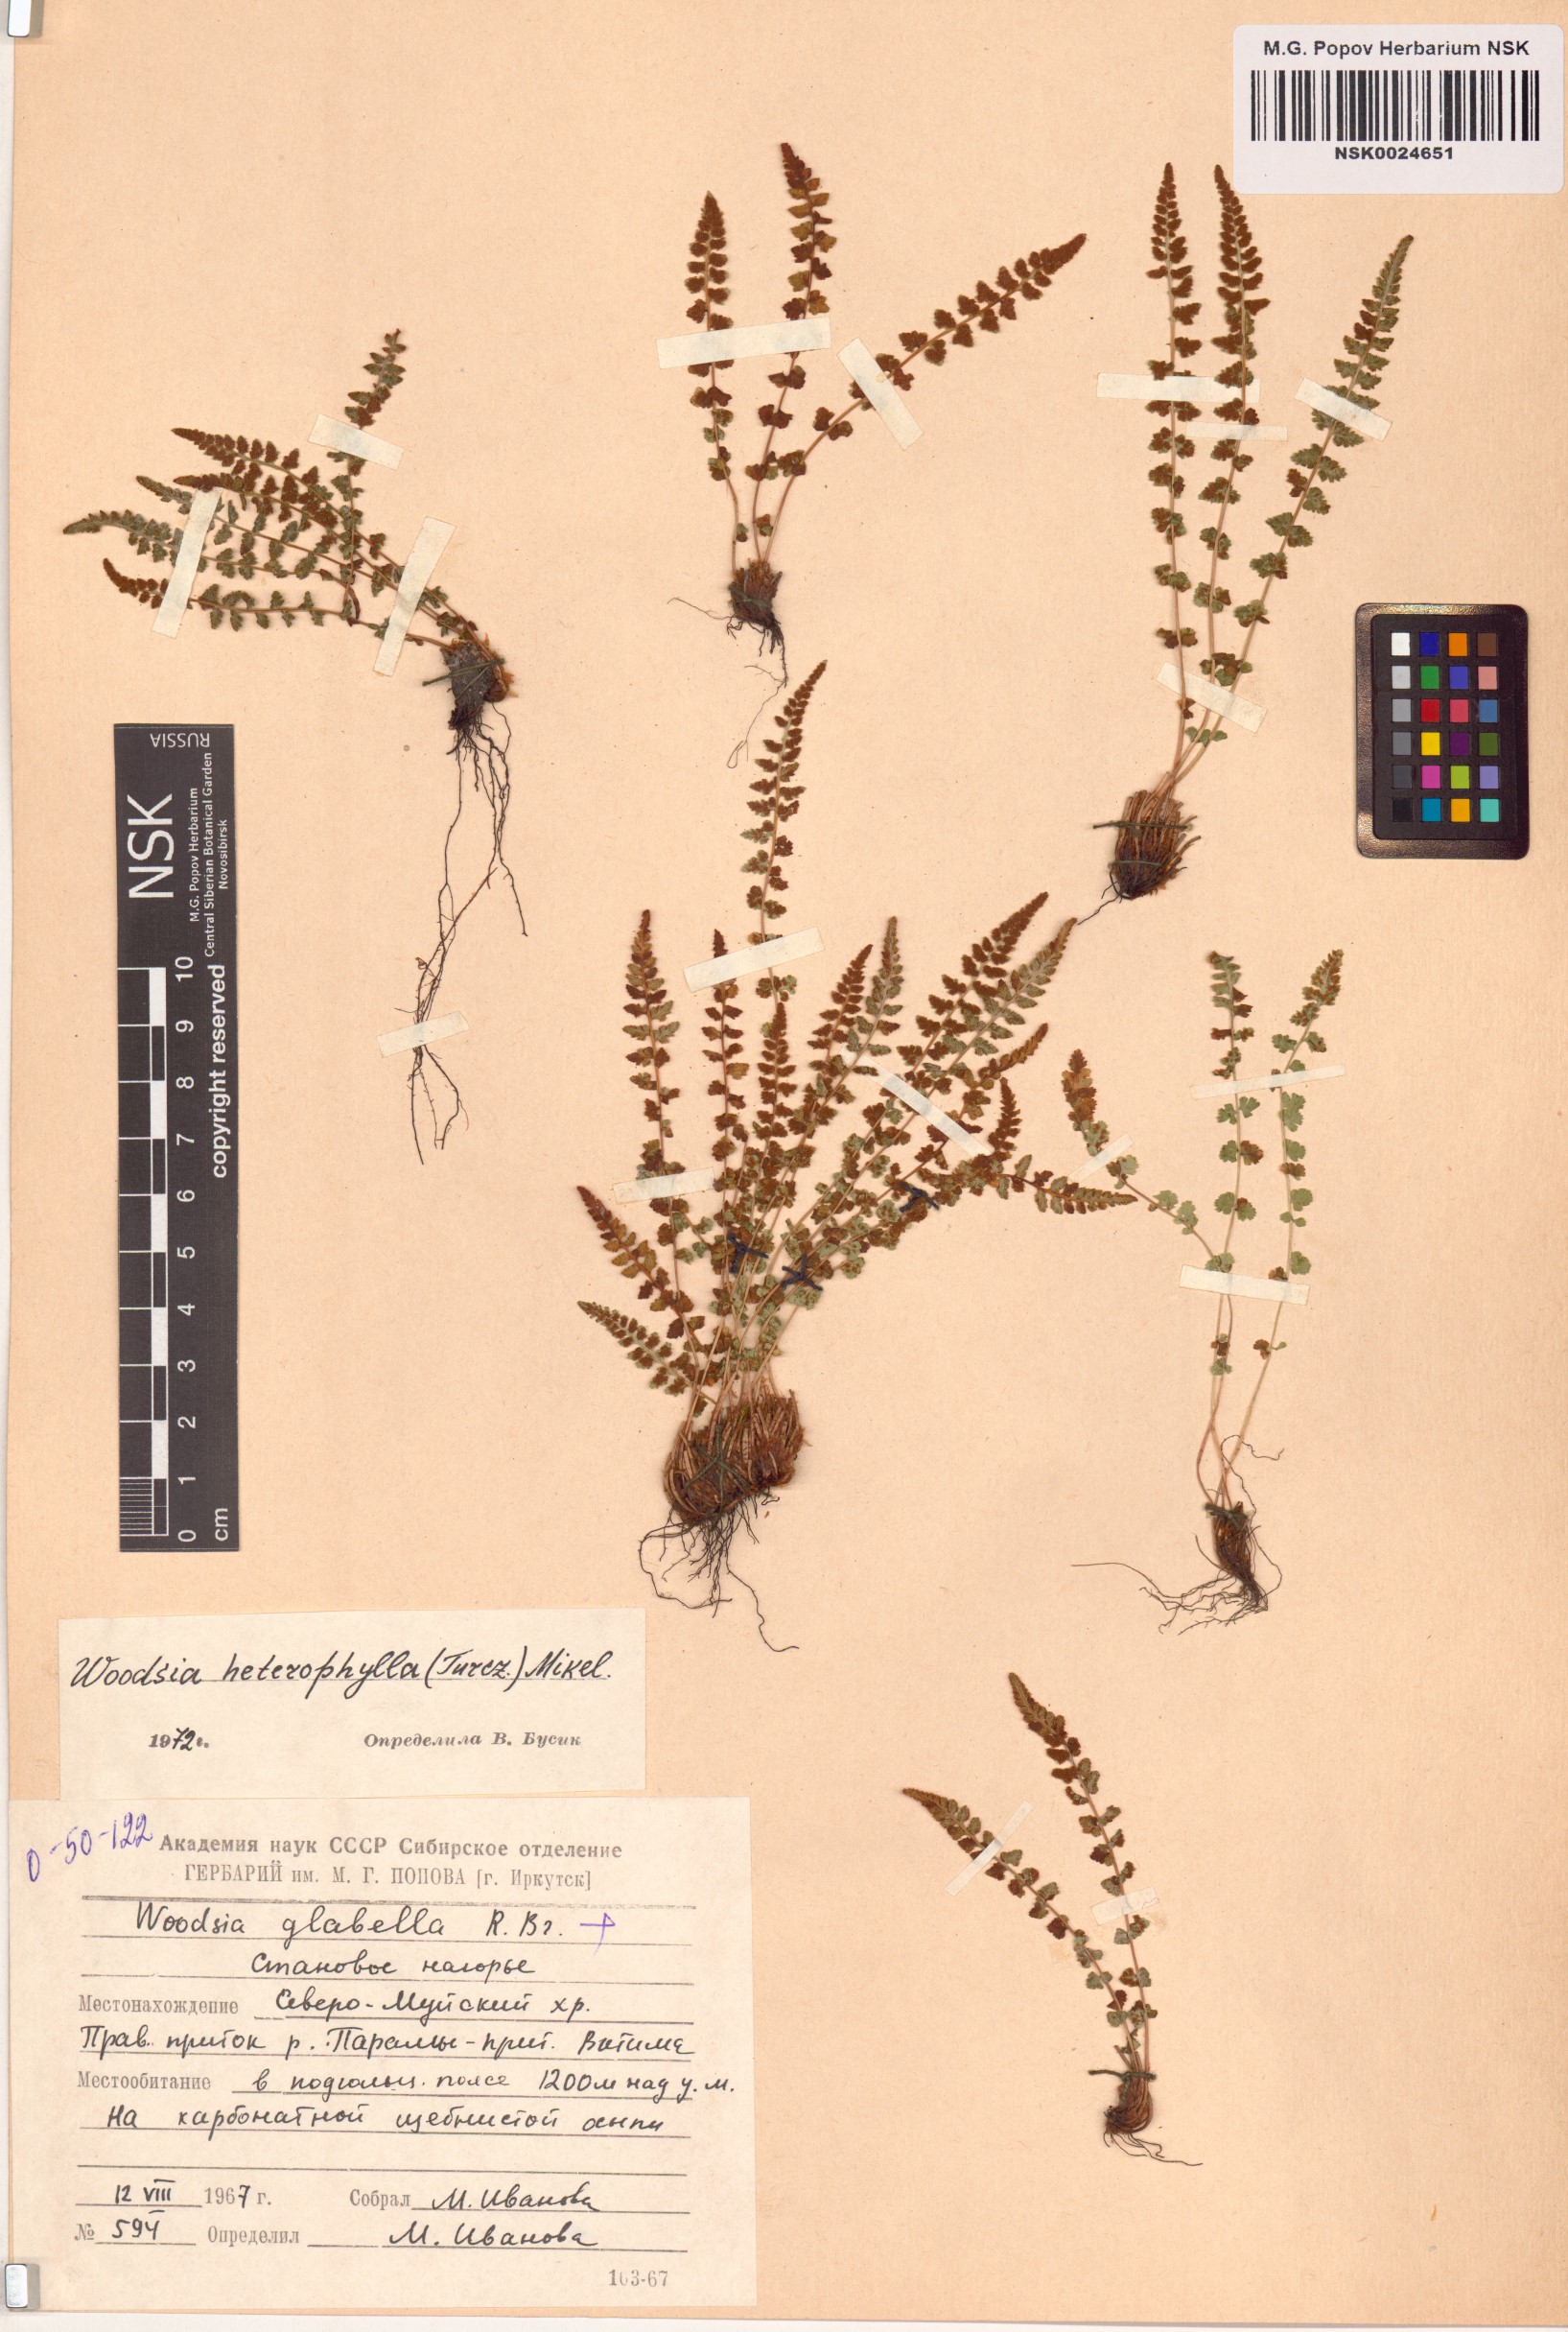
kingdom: Plantae
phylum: Tracheophyta
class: Polypodiopsida
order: Polypodiales
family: Woodsiaceae
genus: Woodsia
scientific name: Woodsia pulchella
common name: Graceful woodsia
